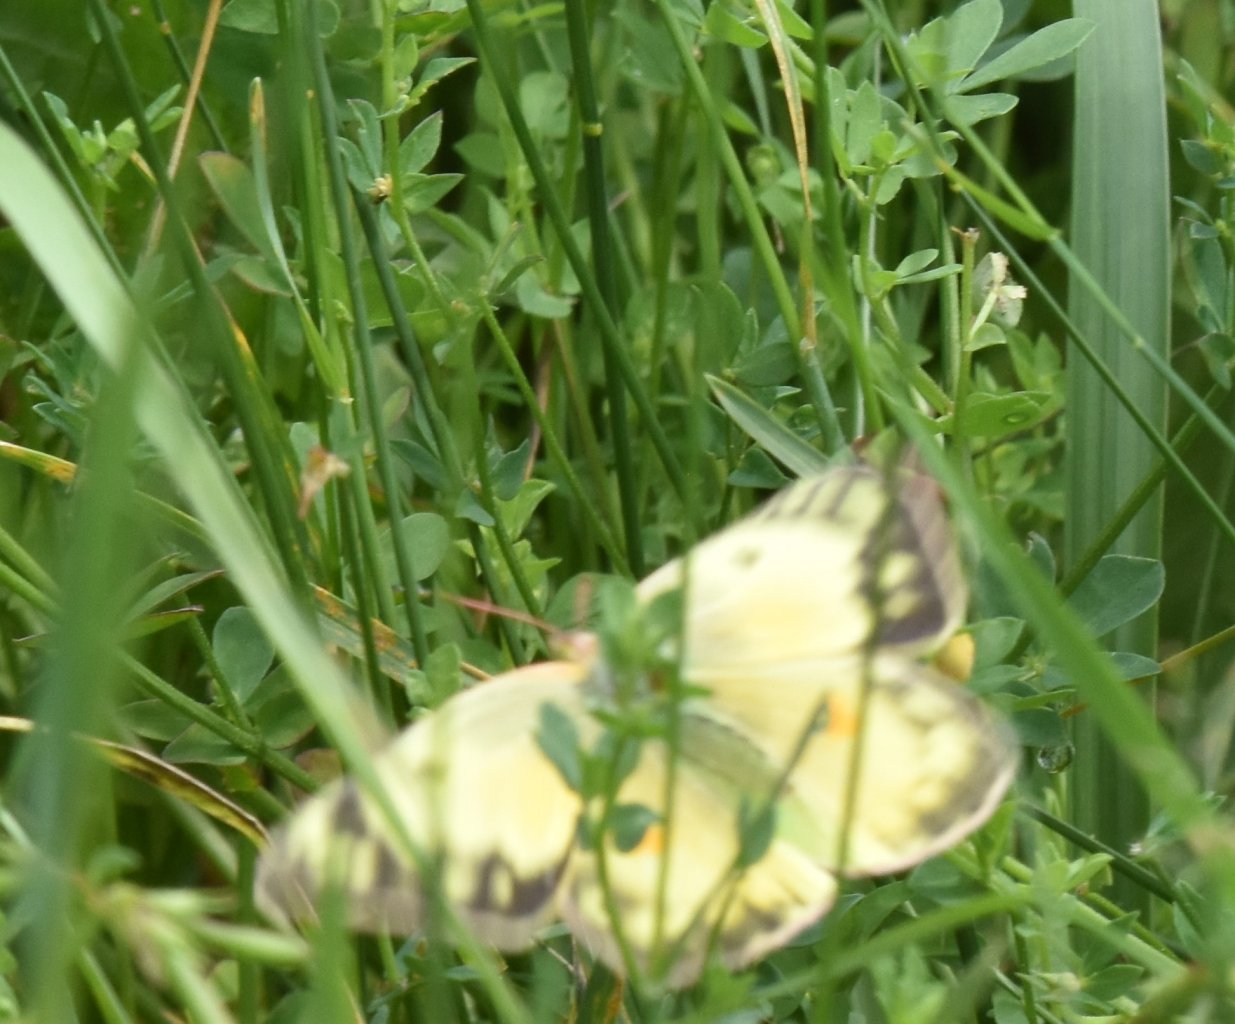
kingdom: Animalia
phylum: Arthropoda
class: Insecta
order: Lepidoptera
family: Pieridae
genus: Colias
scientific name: Colias
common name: Clouded Yellows
